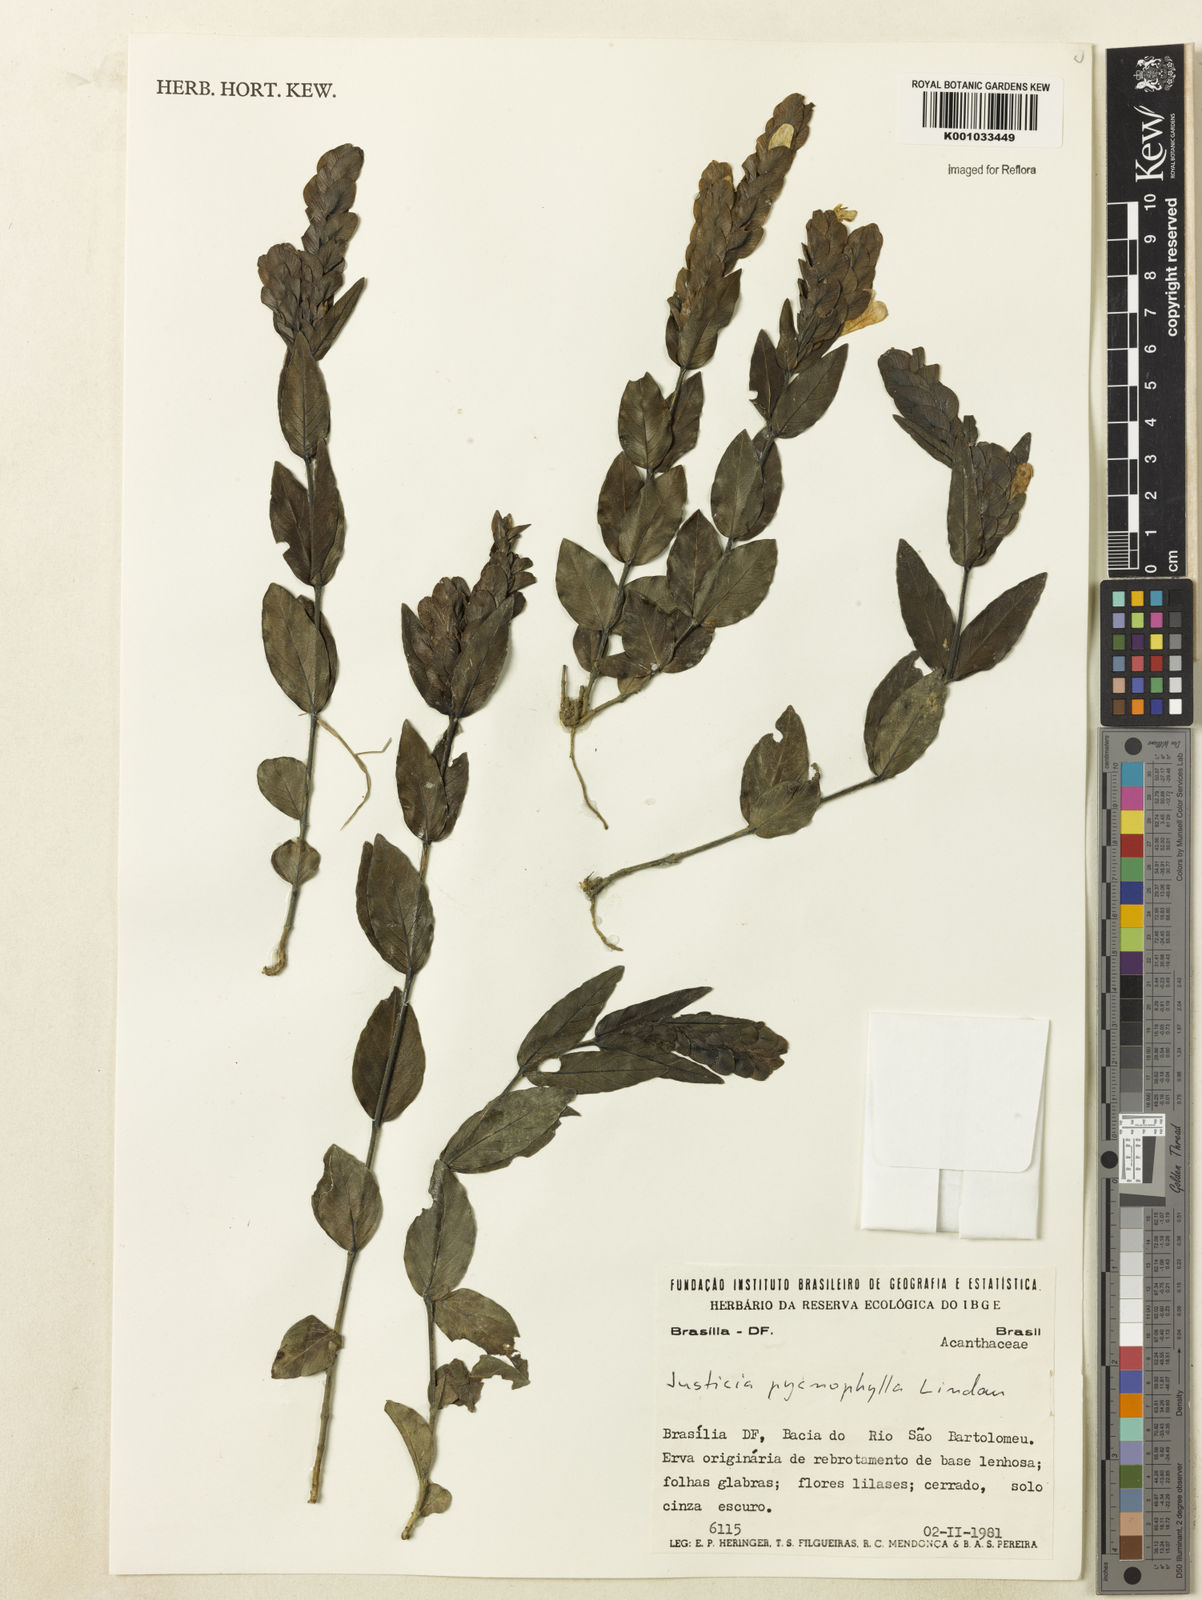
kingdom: Plantae
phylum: Tracheophyta
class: Magnoliopsida
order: Lamiales
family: Acanthaceae
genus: Justicia
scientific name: Justicia pycnophylla
